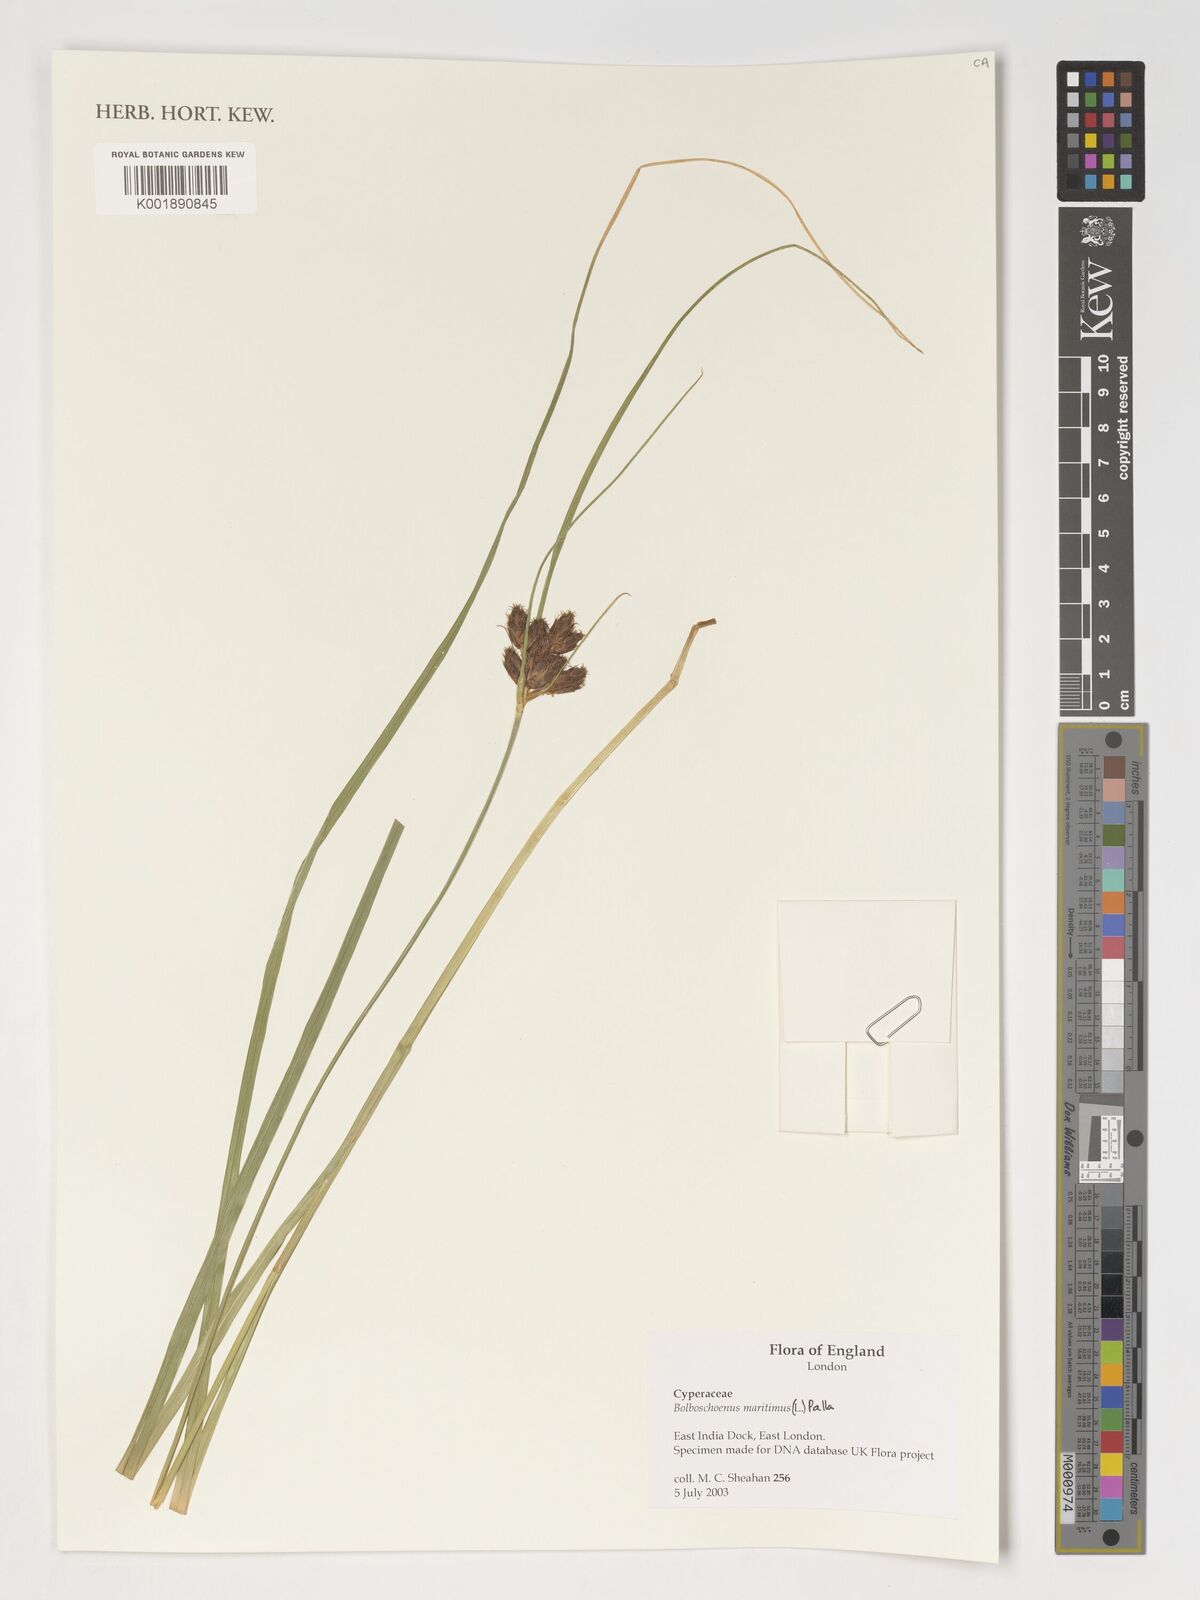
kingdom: Plantae
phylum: Tracheophyta
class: Liliopsida
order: Poales
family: Cyperaceae
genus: Bolboschoenus
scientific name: Bolboschoenus maritimus
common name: Sea club-rush
